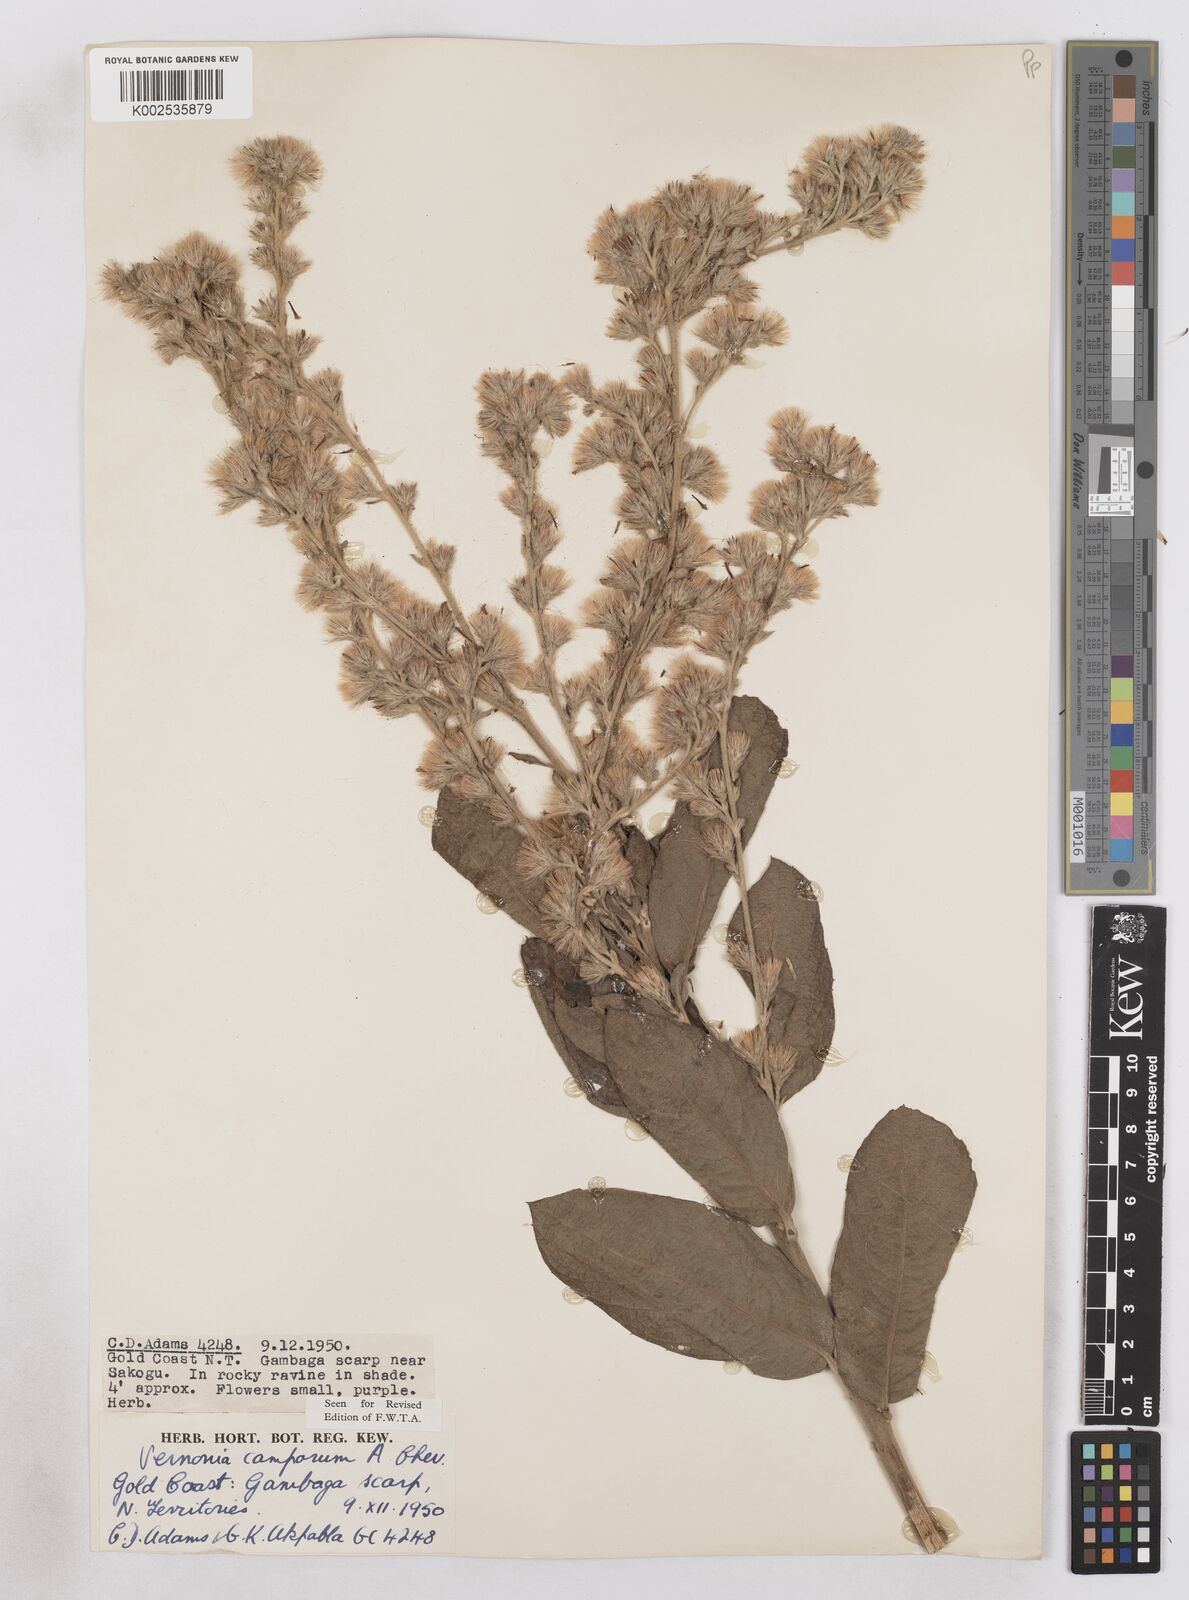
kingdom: Plantae
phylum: Tracheophyta
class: Magnoliopsida
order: Asterales
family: Asteraceae
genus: Vernoniastrum
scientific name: Vernoniastrum camporum
